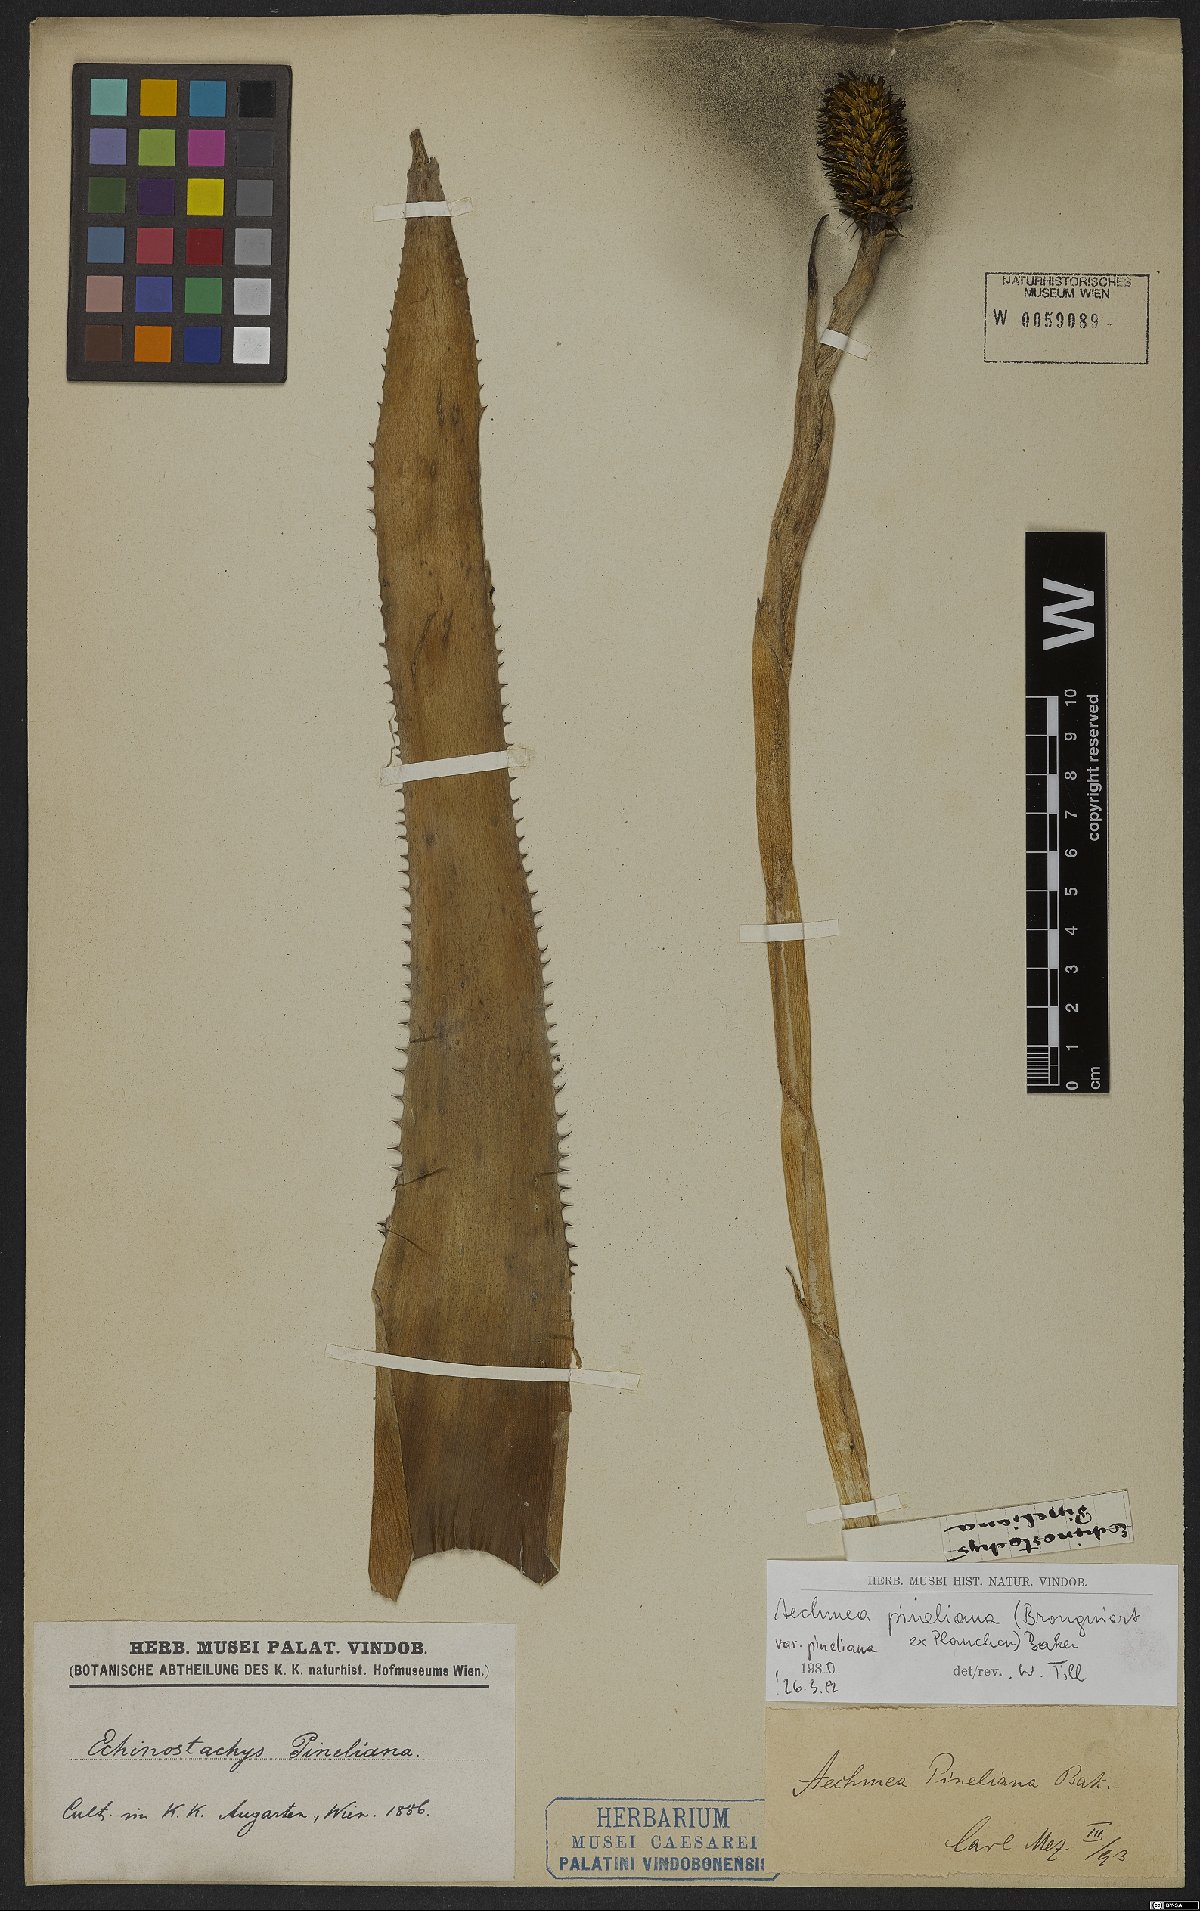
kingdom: Plantae
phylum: Tracheophyta
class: Liliopsida
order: Poales
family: Bromeliaceae
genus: Aechmea
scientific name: Aechmea pineliana
